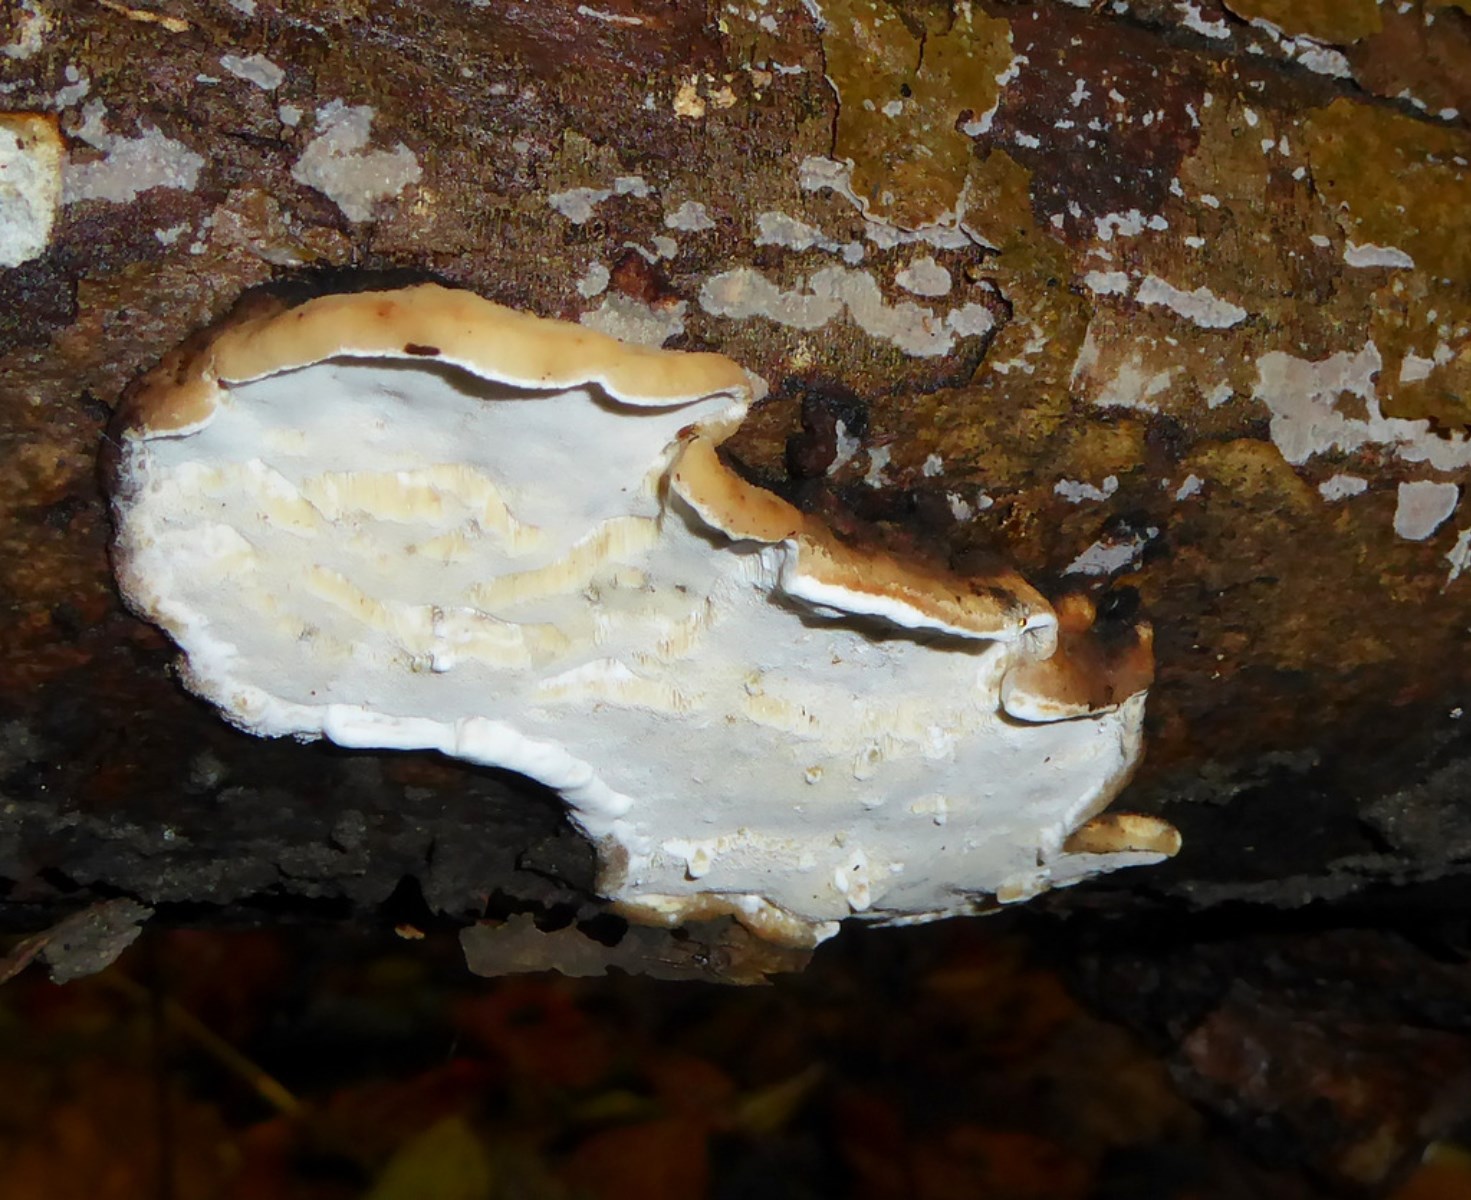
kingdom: Fungi
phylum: Basidiomycota
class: Agaricomycetes
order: Polyporales
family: Incrustoporiaceae
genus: Skeletocutis
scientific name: Skeletocutis nemoralis
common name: stor krystalporesvamp
